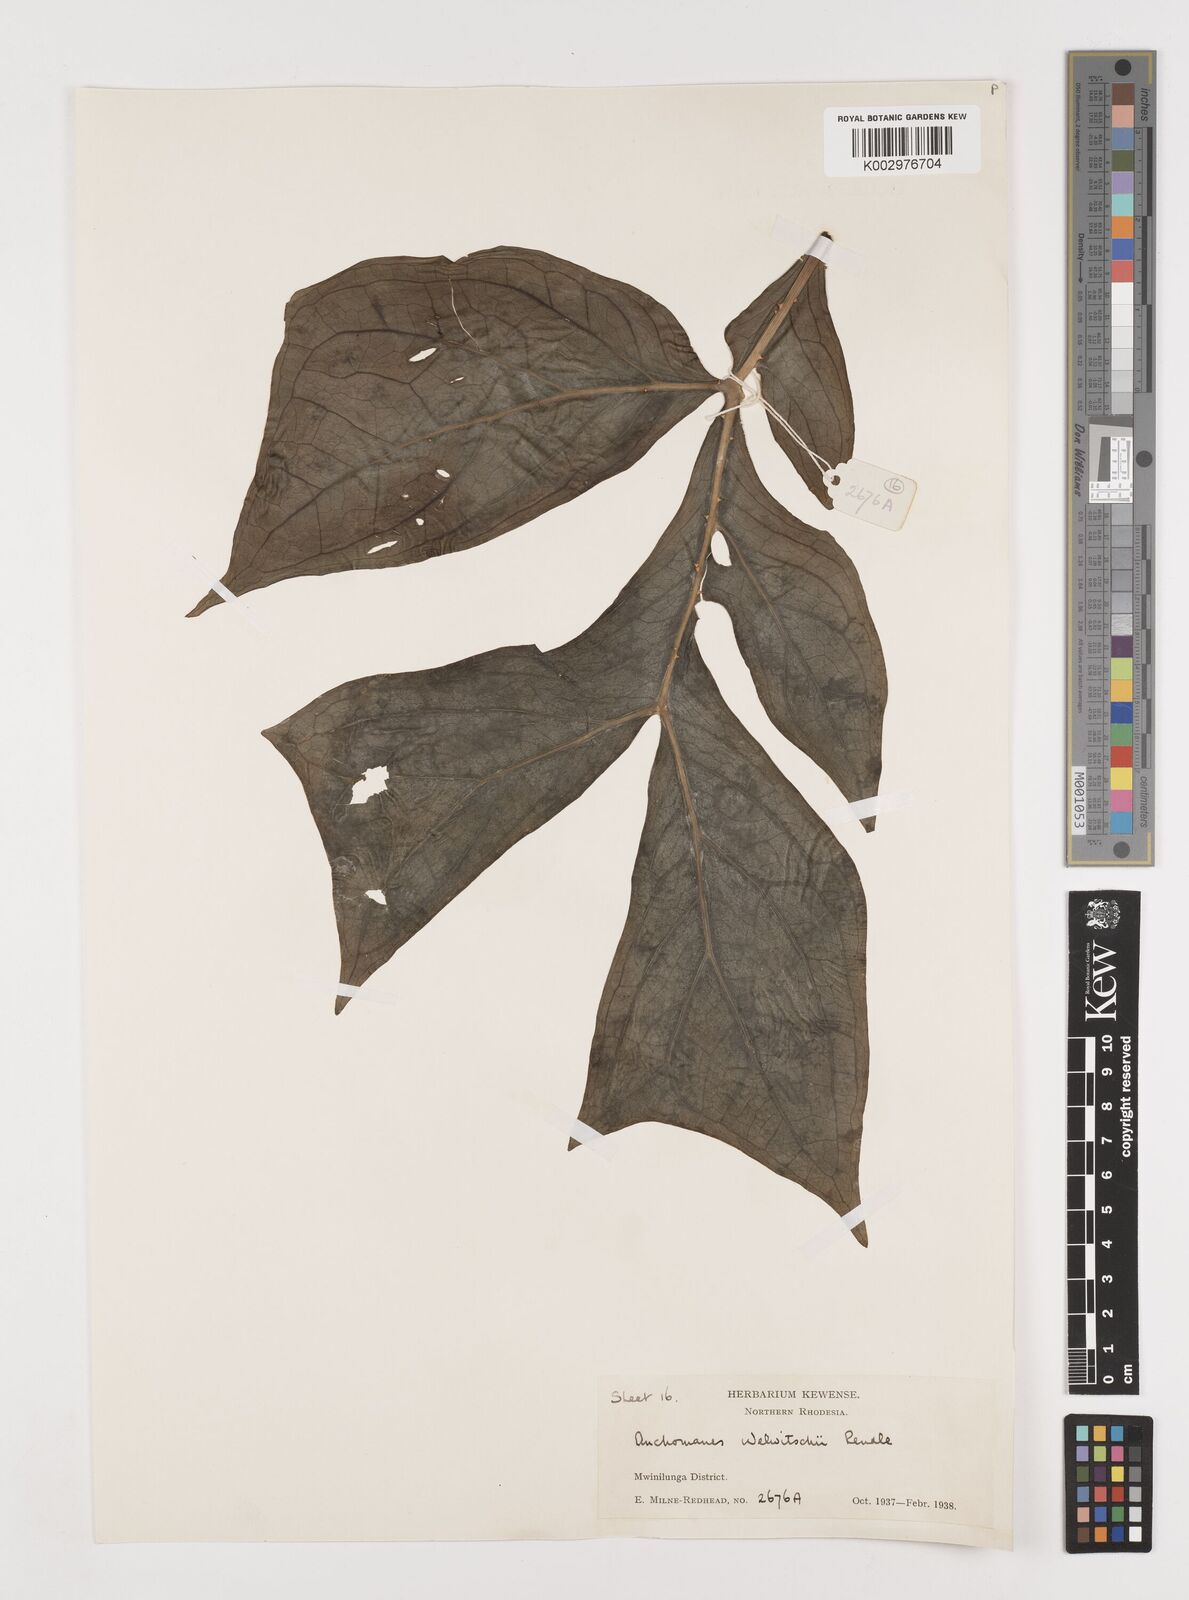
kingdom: Plantae
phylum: Tracheophyta
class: Liliopsida
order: Alismatales
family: Araceae
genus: Anchomanes
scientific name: Anchomanes difformis
